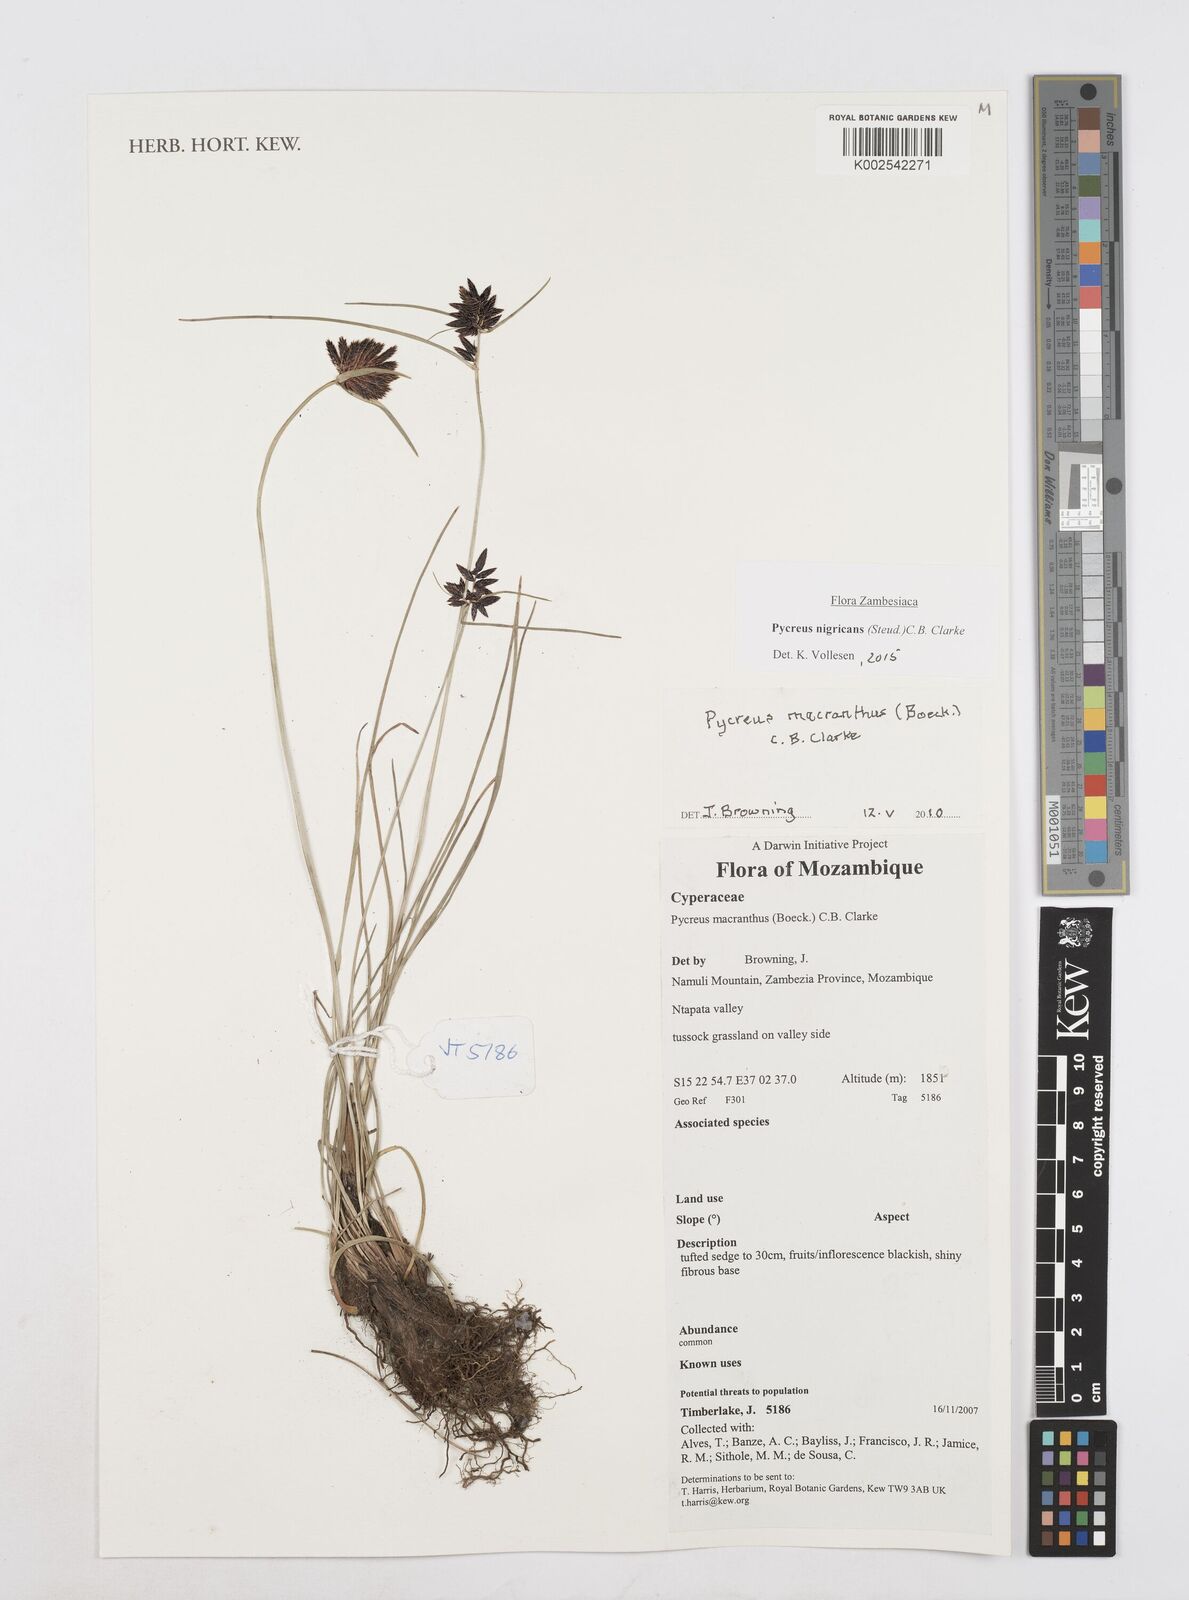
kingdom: Plantae
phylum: Tracheophyta
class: Liliopsida
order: Poales
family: Cyperaceae
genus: Cyperus
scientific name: Cyperus nigricans
